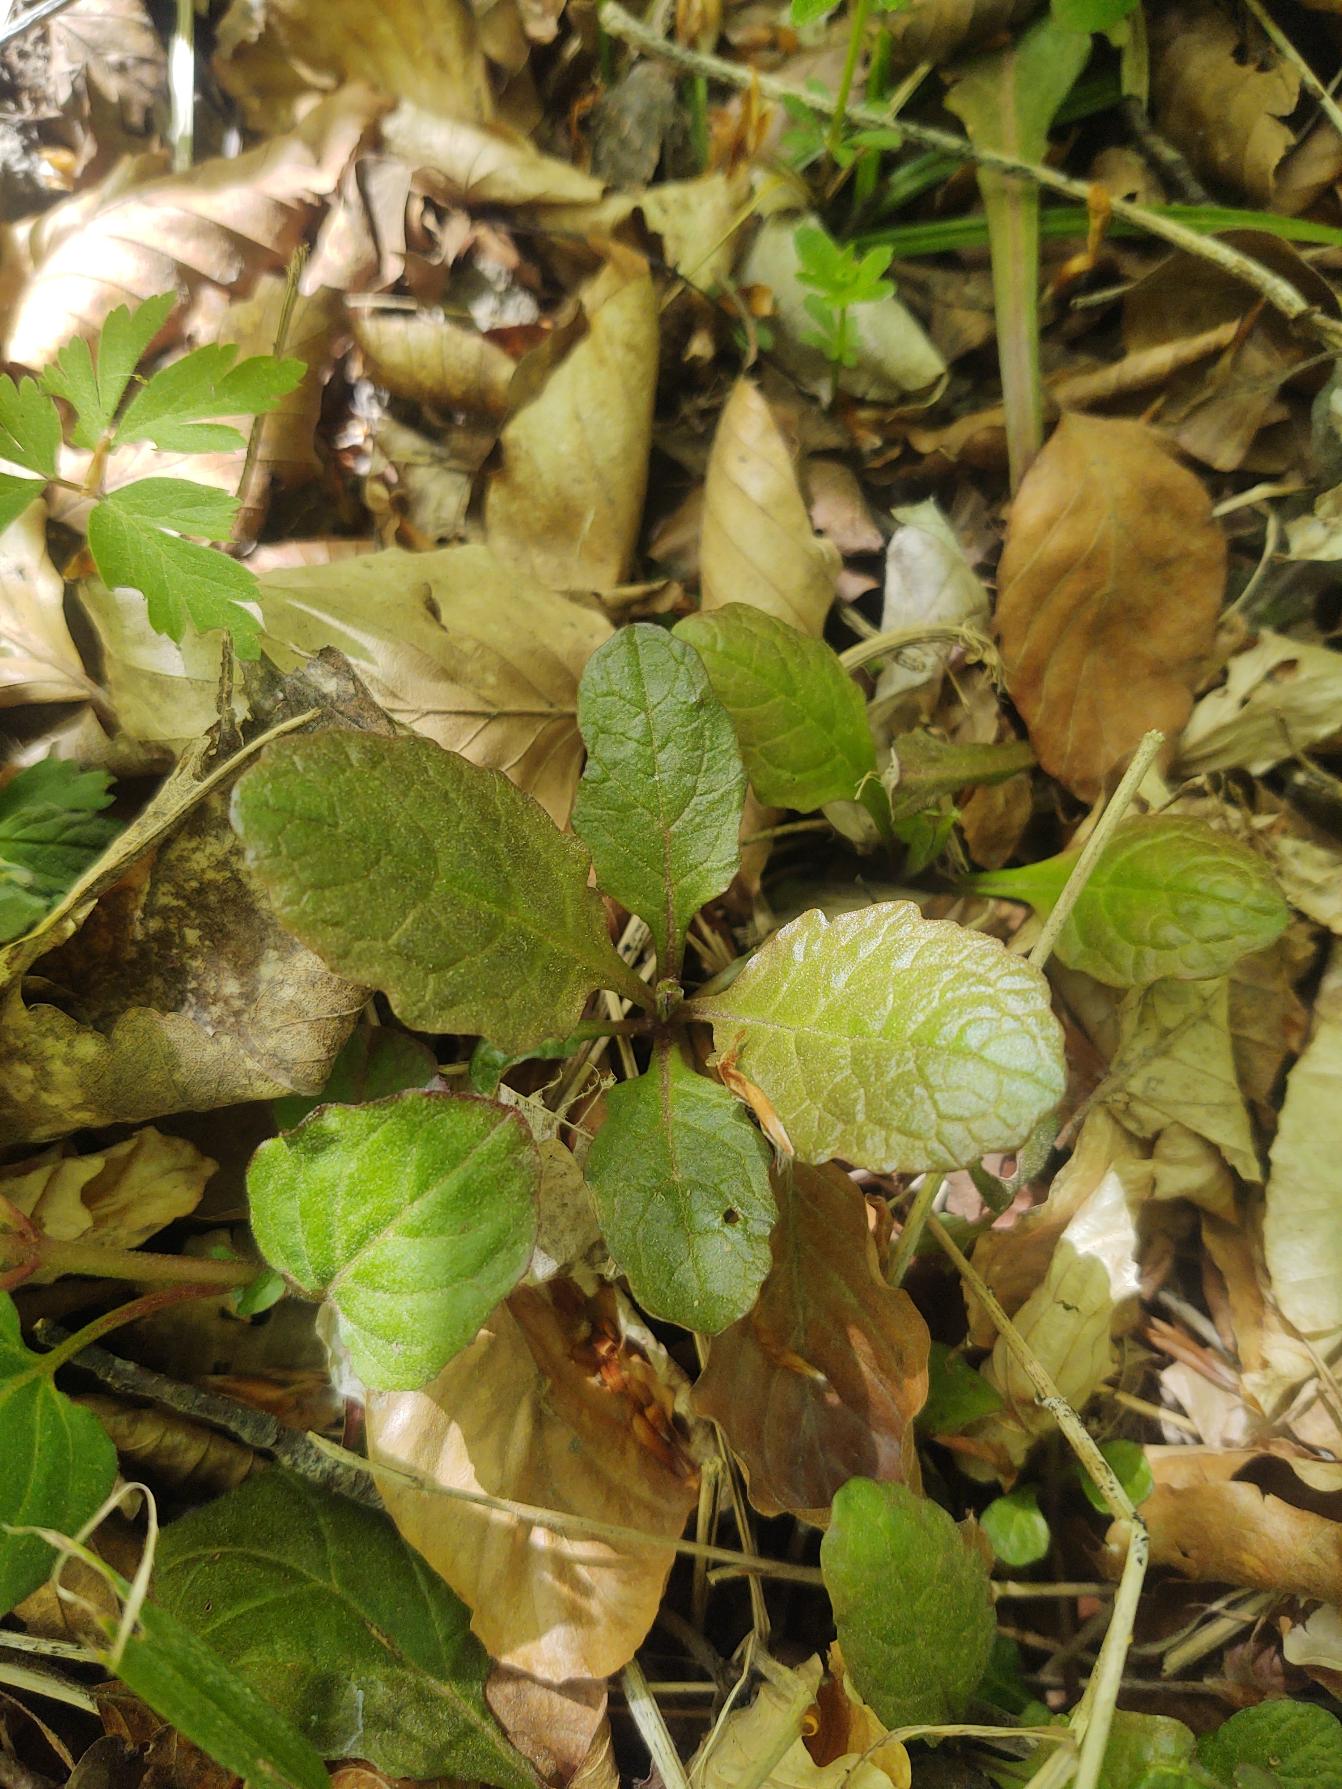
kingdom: Plantae
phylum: Tracheophyta
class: Magnoliopsida
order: Lamiales
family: Lamiaceae
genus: Ajuga
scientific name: Ajuga reptans
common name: Krybende læbeløs
